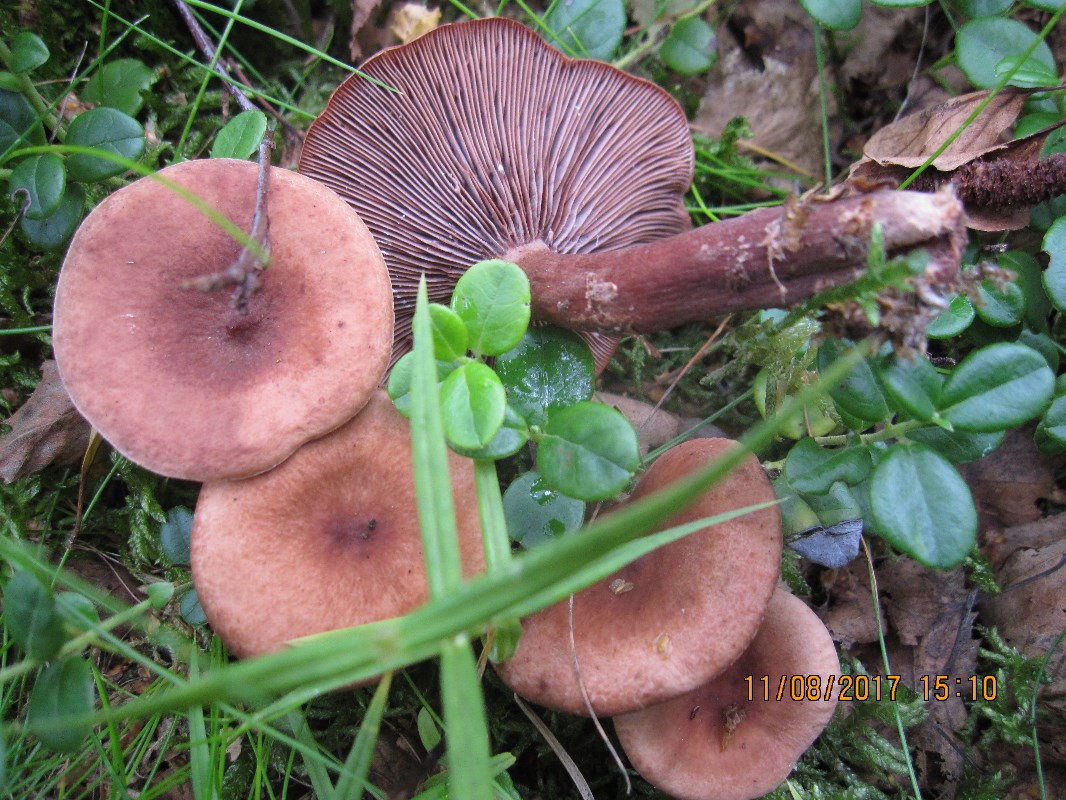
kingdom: Fungi
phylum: Basidiomycota
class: Agaricomycetes
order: Russulales
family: Russulaceae
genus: Lactarius
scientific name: Lactarius camphoratus
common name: kamfer-mælkehat
